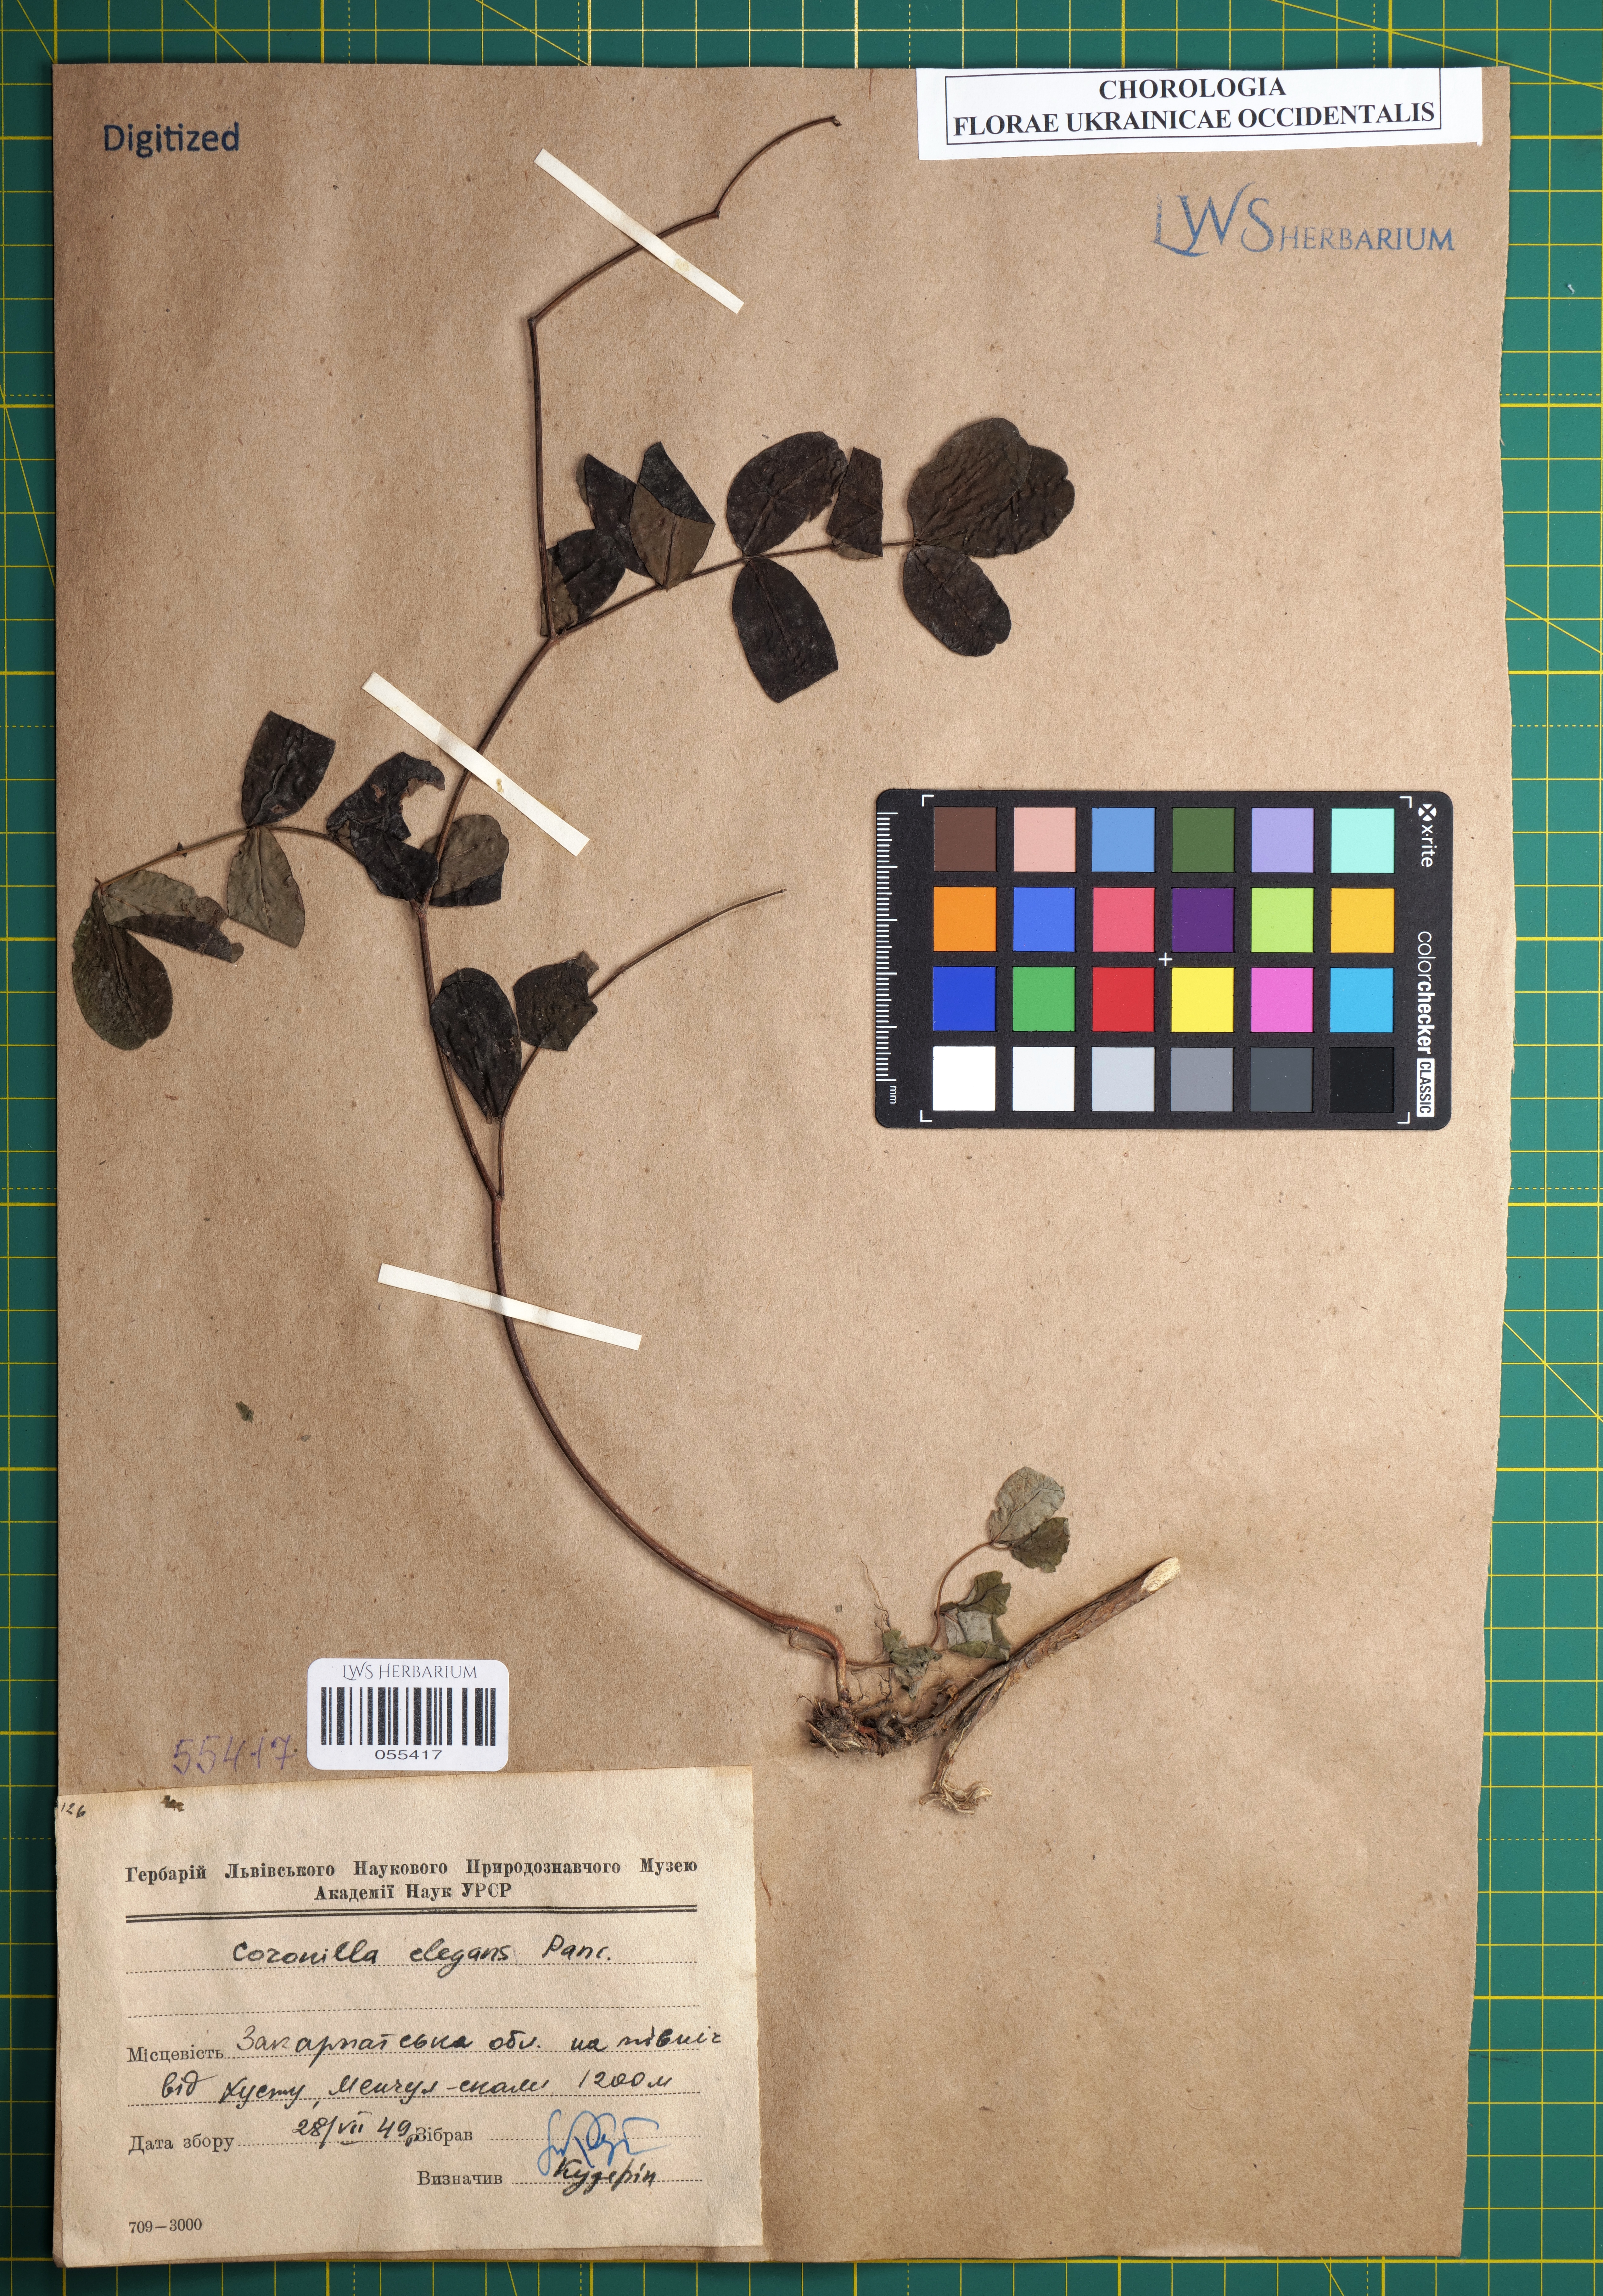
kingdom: Plantae
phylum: Tracheophyta
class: Magnoliopsida
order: Fabales
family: Fabaceae
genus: Coronilla
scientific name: Coronilla elegans
